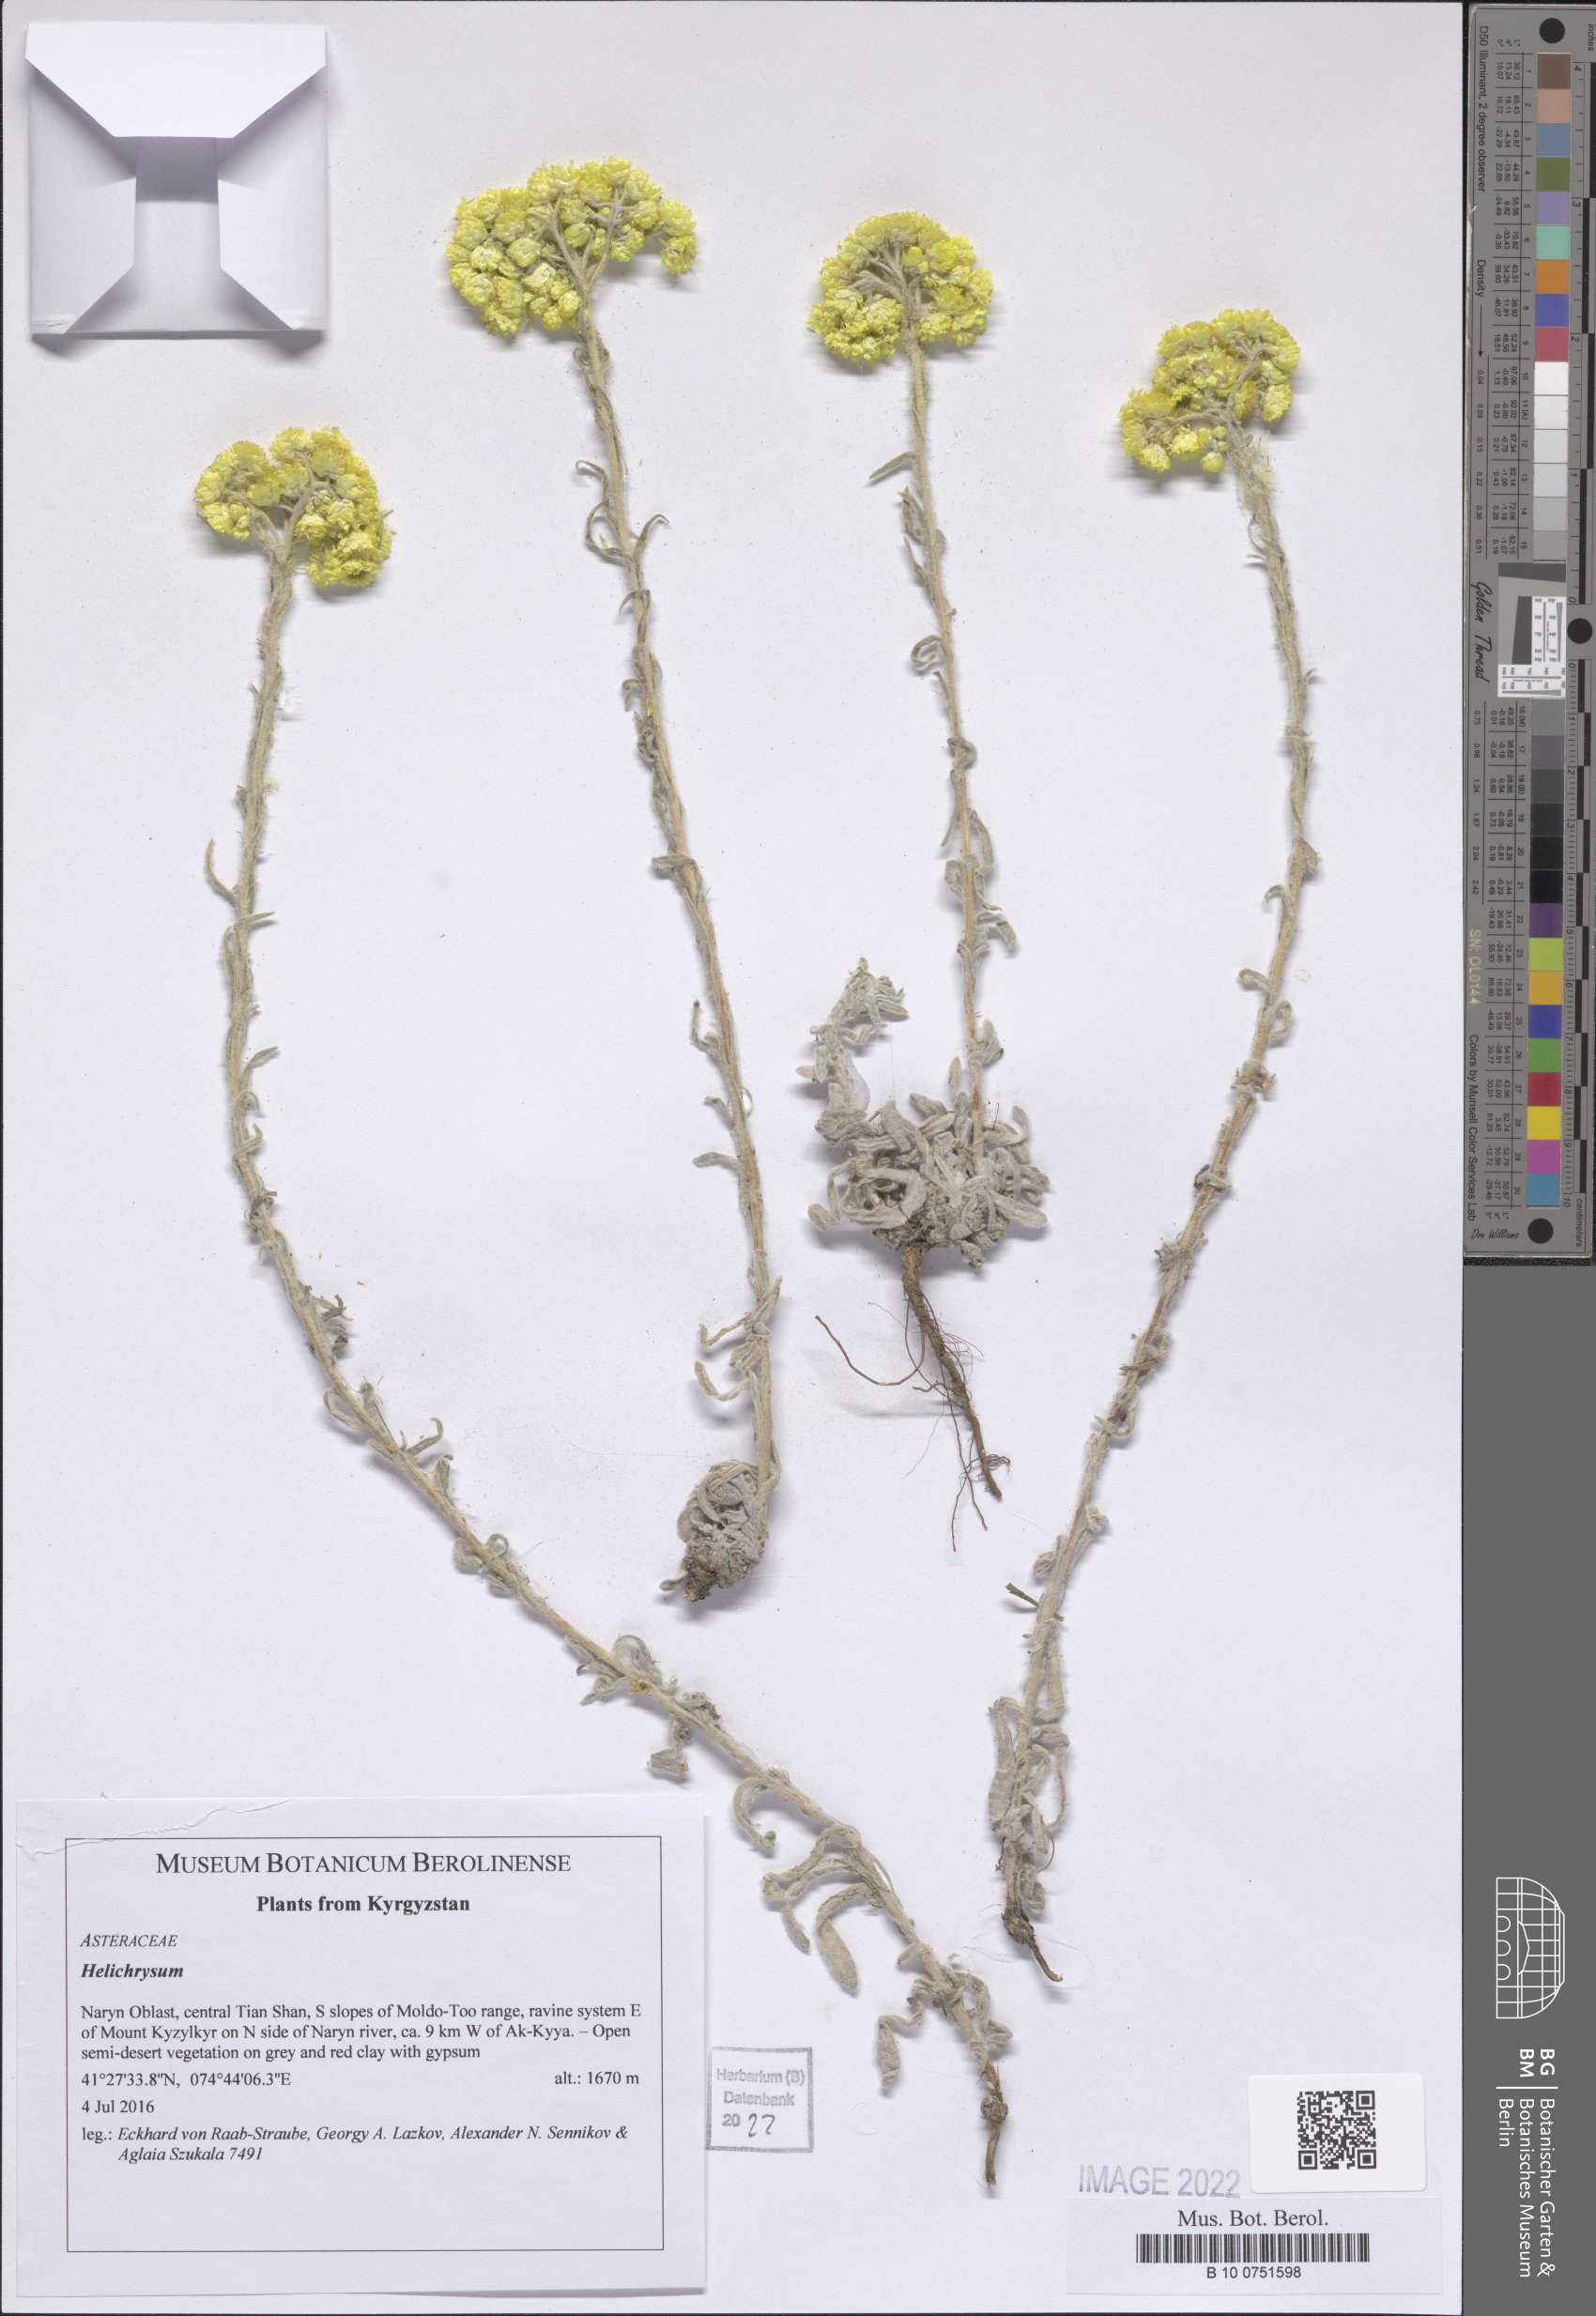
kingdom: Plantae
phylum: Tracheophyta
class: Magnoliopsida
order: Asterales
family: Asteraceae
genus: Helichrysum
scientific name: Helichrysum
